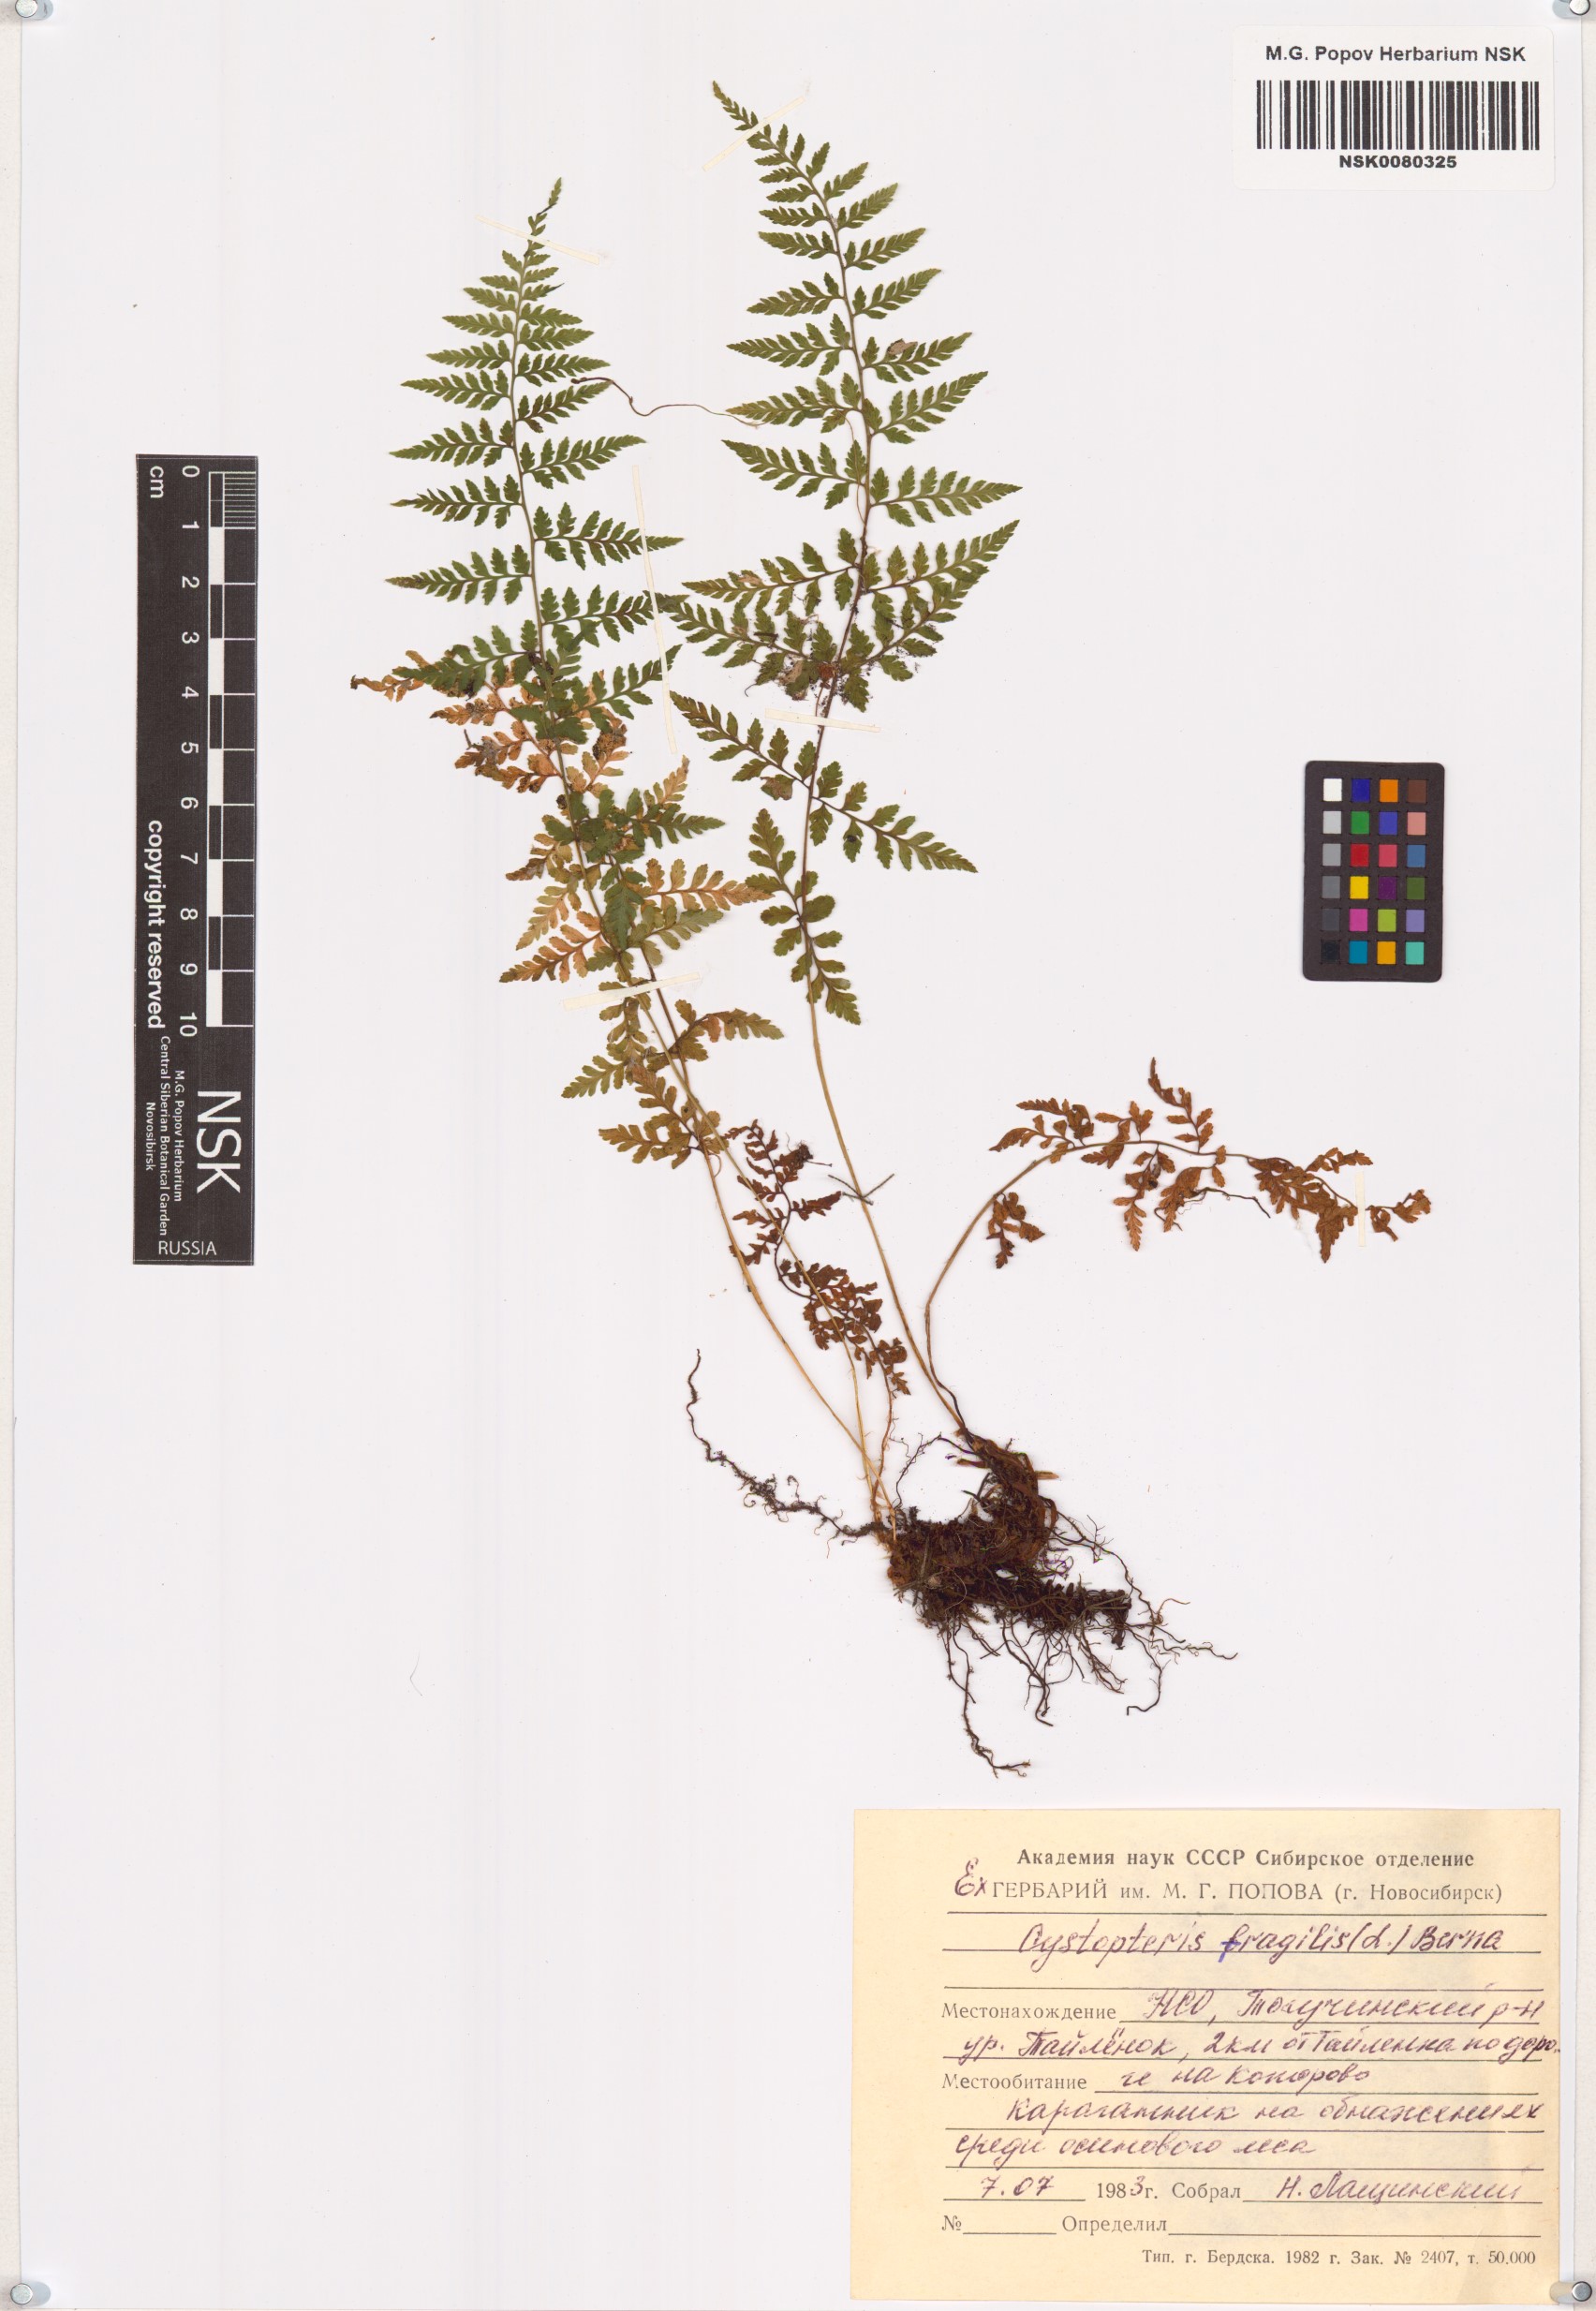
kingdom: Plantae
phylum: Tracheophyta
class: Polypodiopsida
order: Polypodiales
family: Cystopteridaceae
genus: Cystopteris
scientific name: Cystopteris fragilis
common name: Brittle bladder fern
